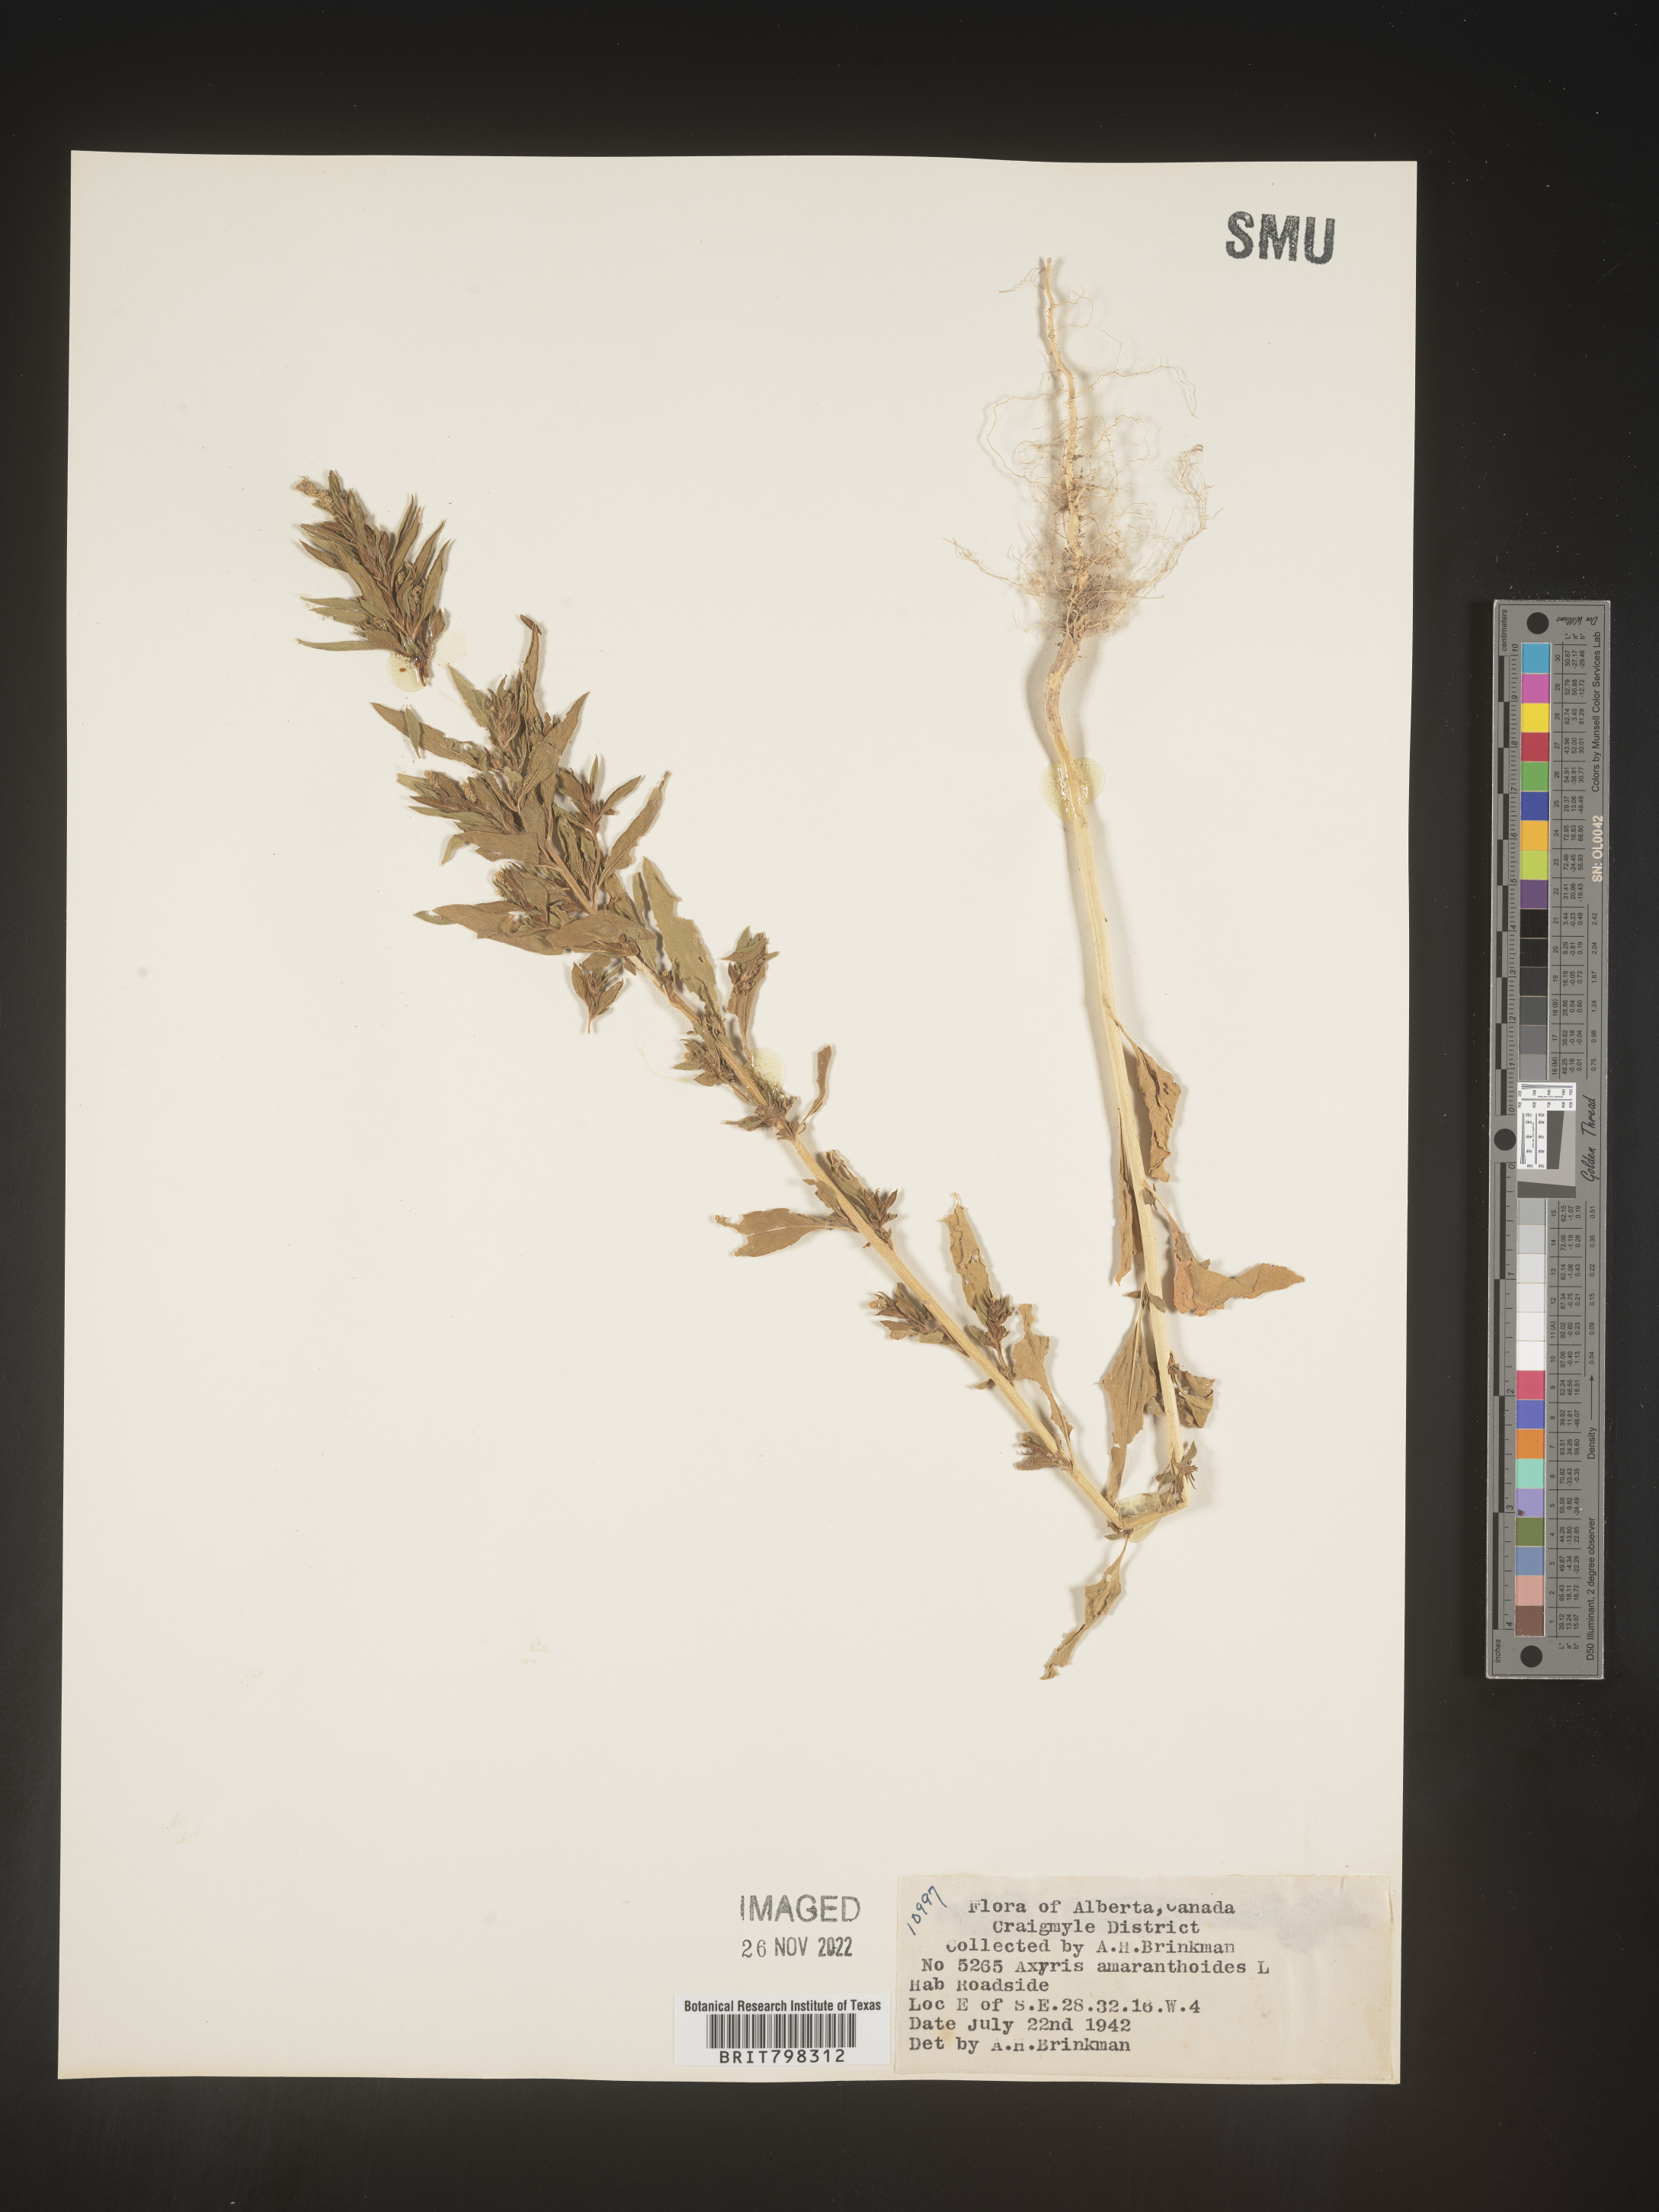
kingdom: Plantae
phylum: Tracheophyta
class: Magnoliopsida
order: Caryophyllales
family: Amaranthaceae
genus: Axyris
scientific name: Axyris
